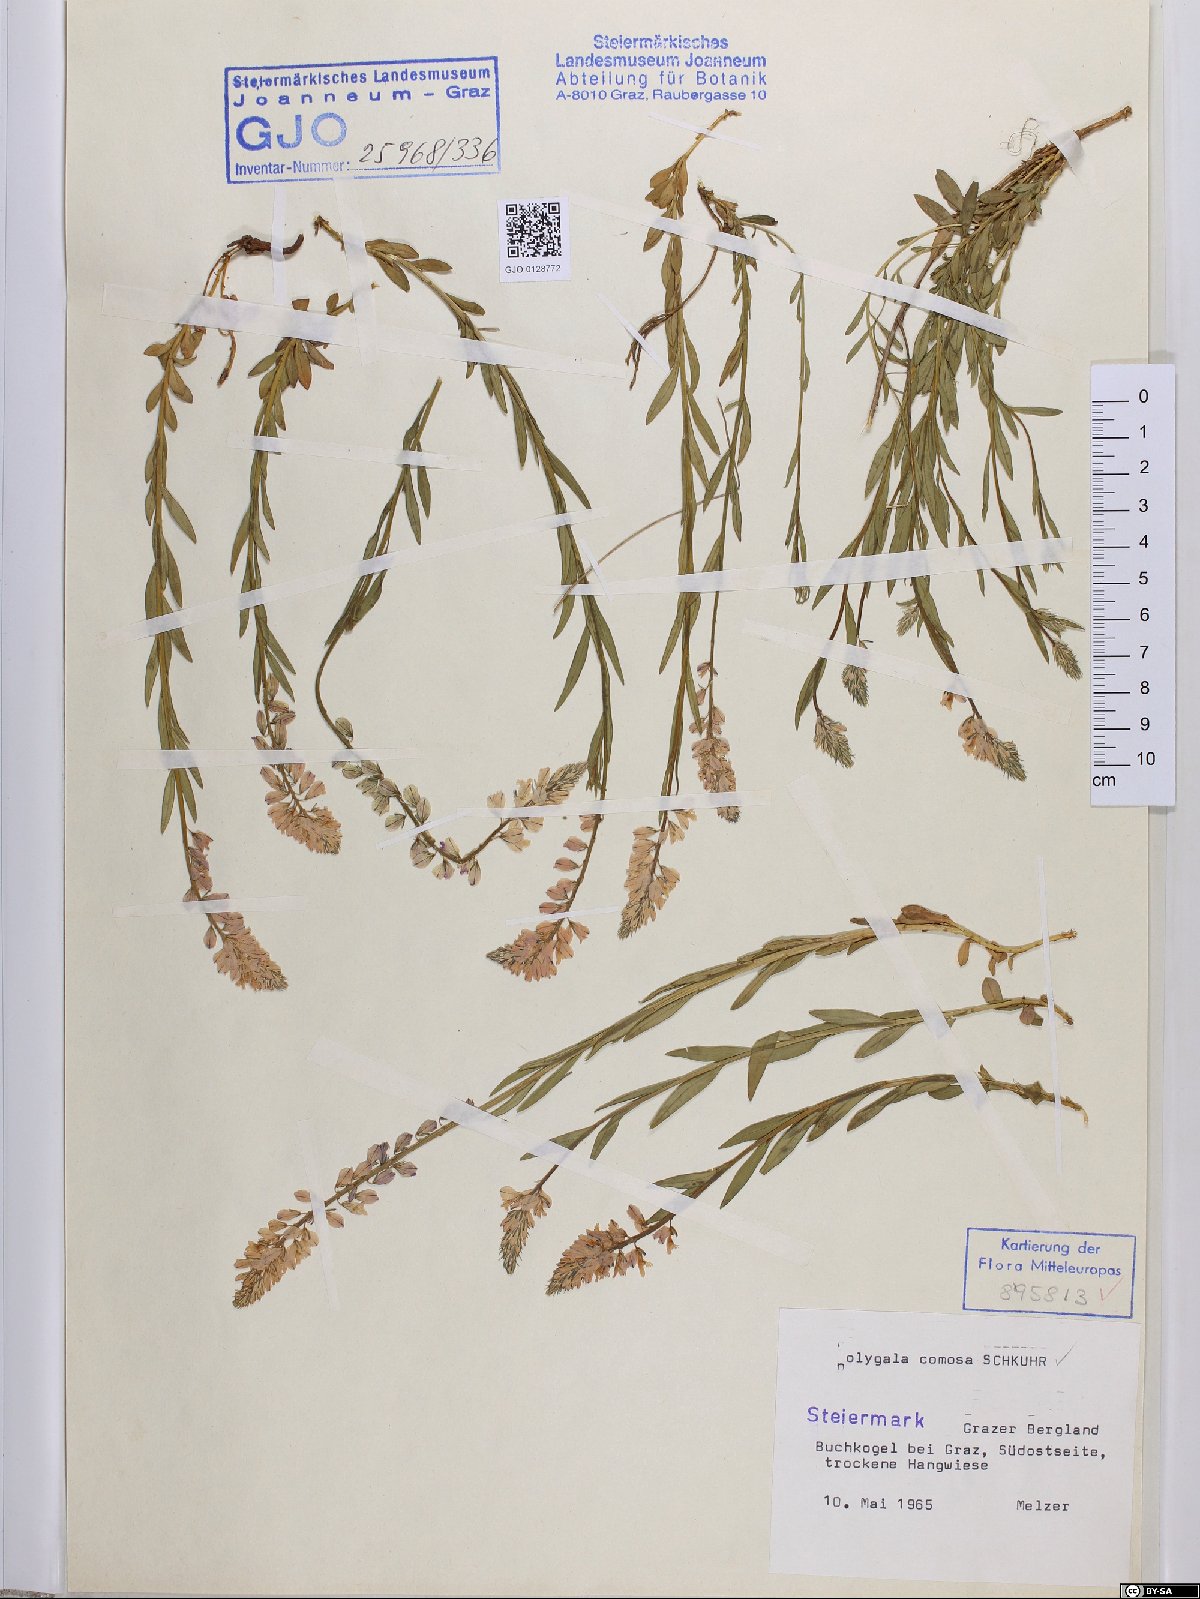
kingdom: Plantae
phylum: Tracheophyta
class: Magnoliopsida
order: Fabales
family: Polygalaceae
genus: Polygala
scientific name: Polygala comosa
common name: Tufted milkwort
